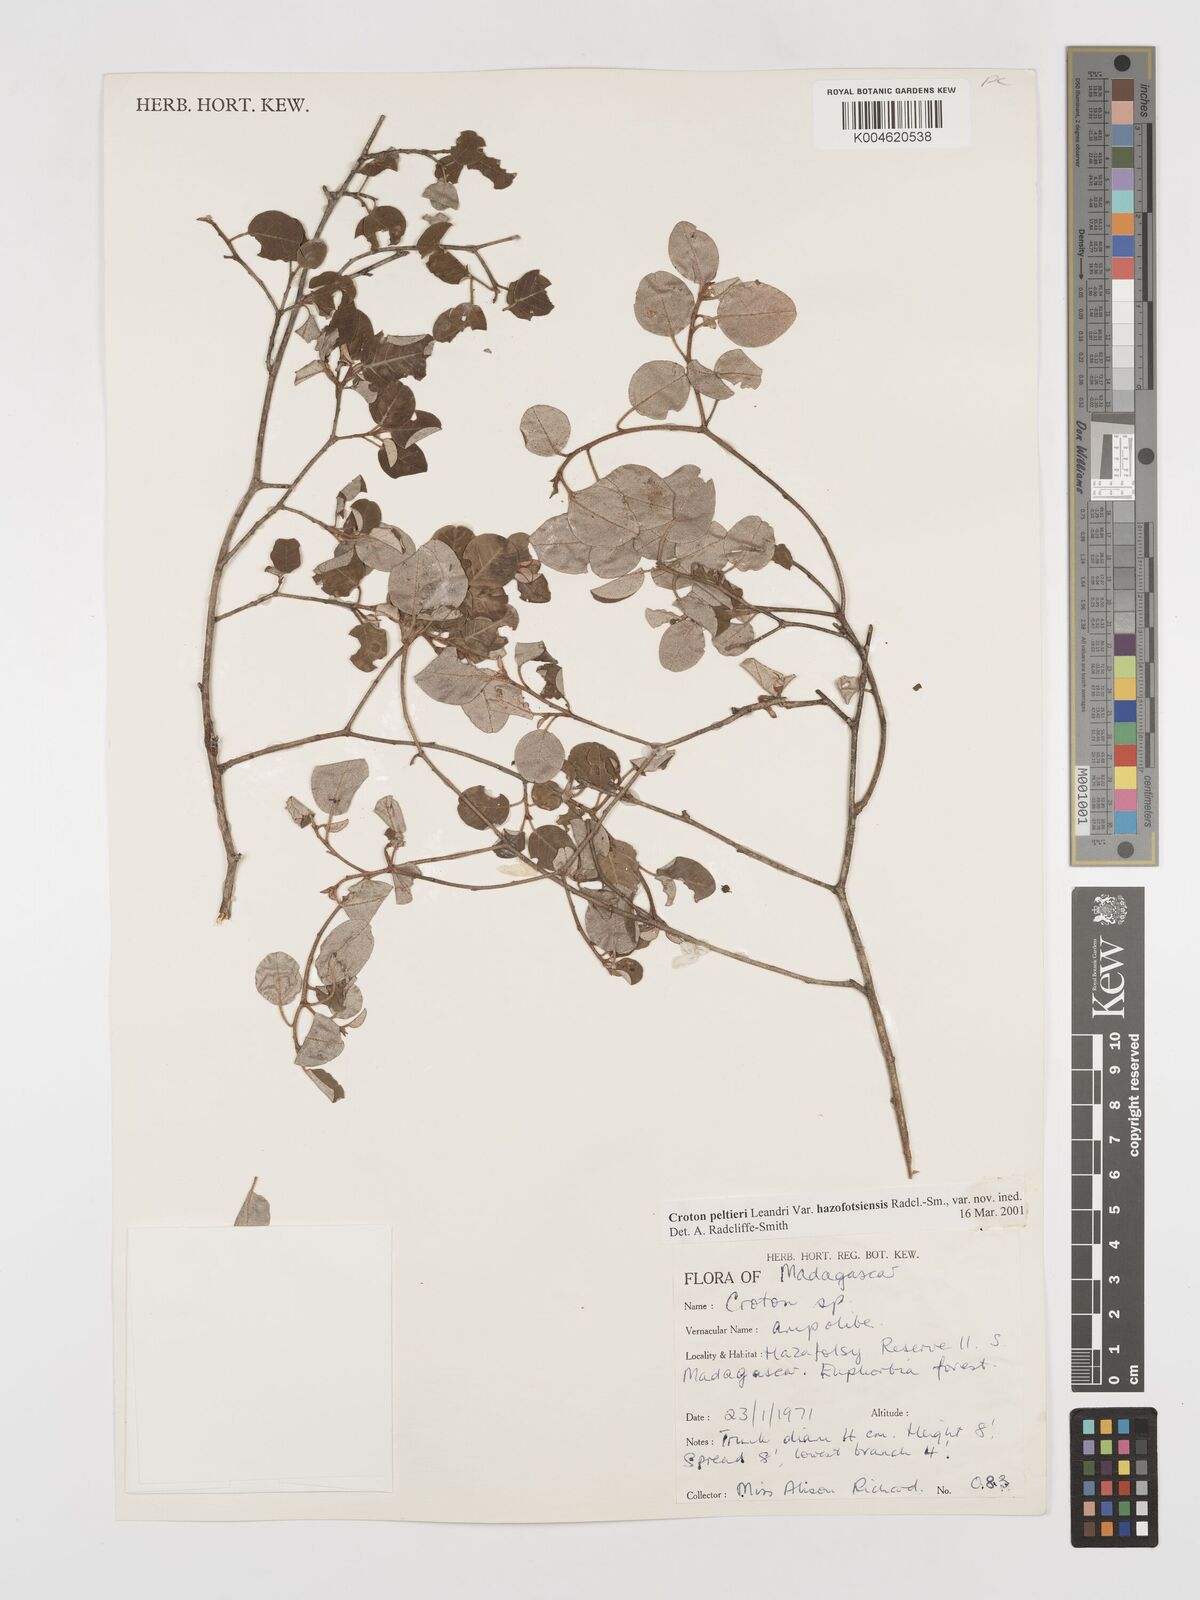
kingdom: Plantae
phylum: Tracheophyta
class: Magnoliopsida
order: Malpighiales
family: Euphorbiaceae
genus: Croton
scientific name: Croton miarensis
